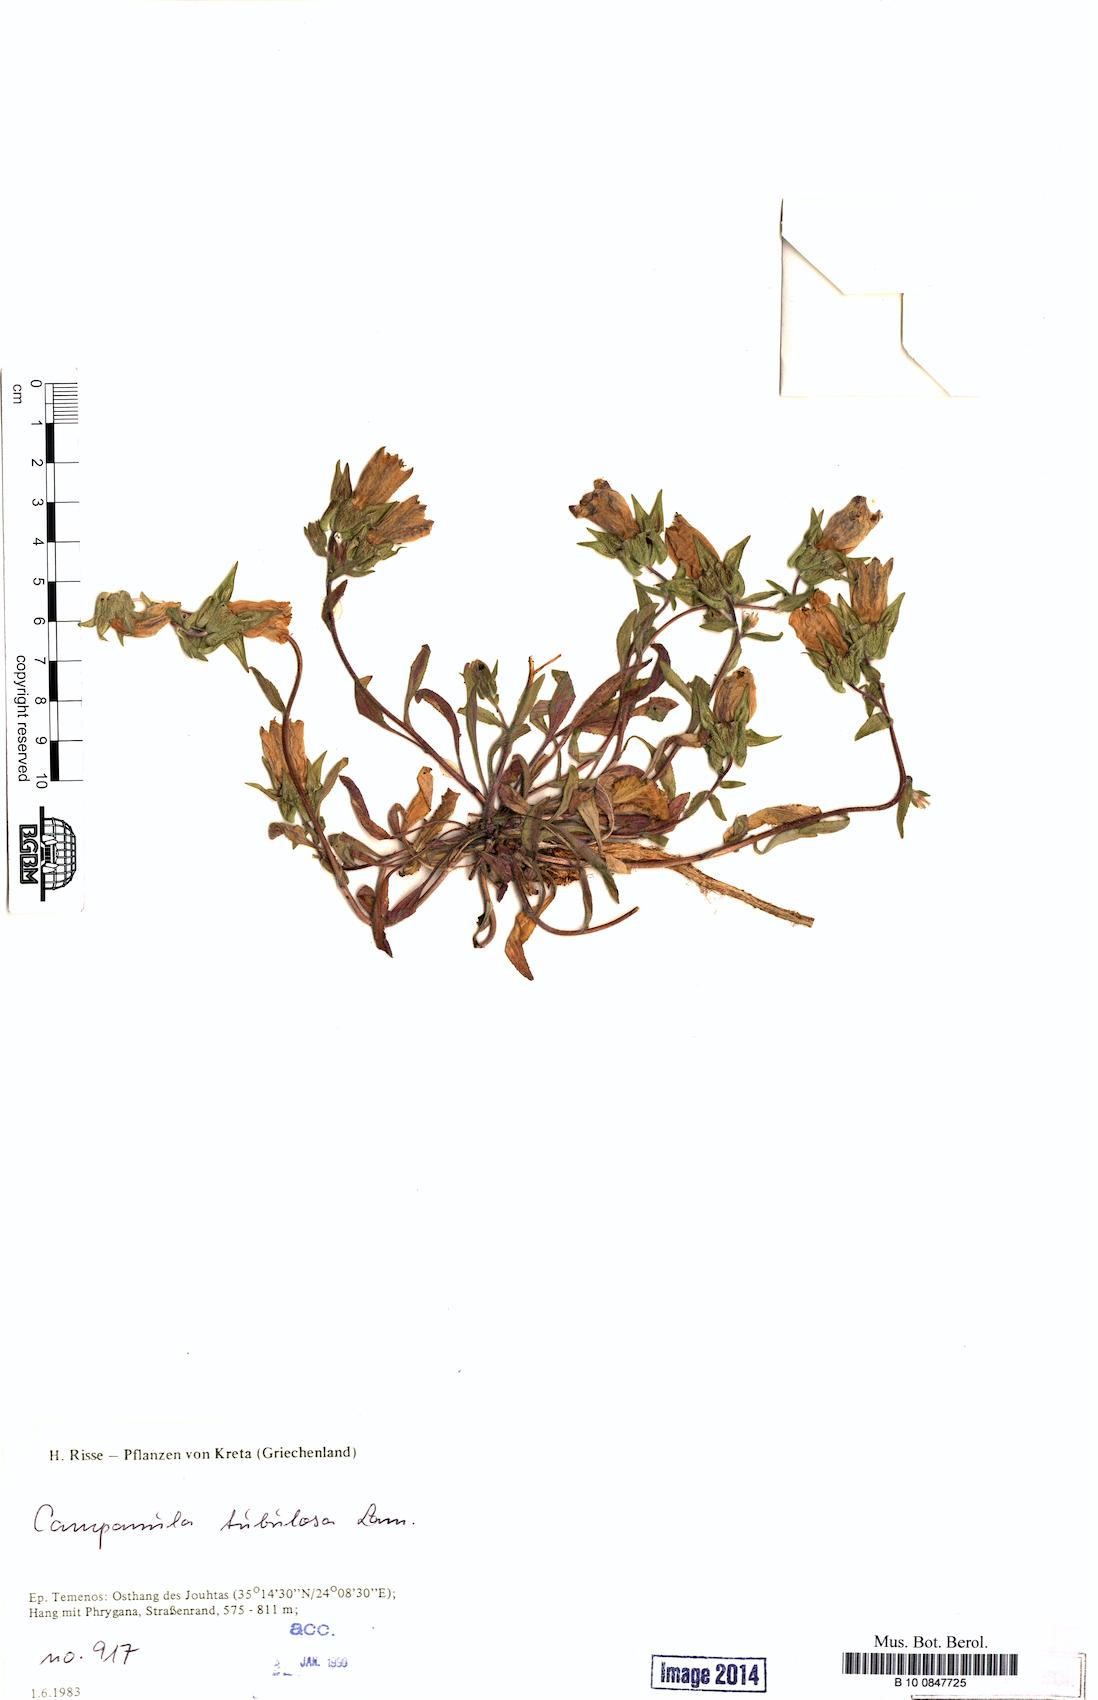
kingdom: Plantae
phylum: Tracheophyta
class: Magnoliopsida
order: Asterales
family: Campanulaceae
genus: Campanula
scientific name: Campanula tubulosa
